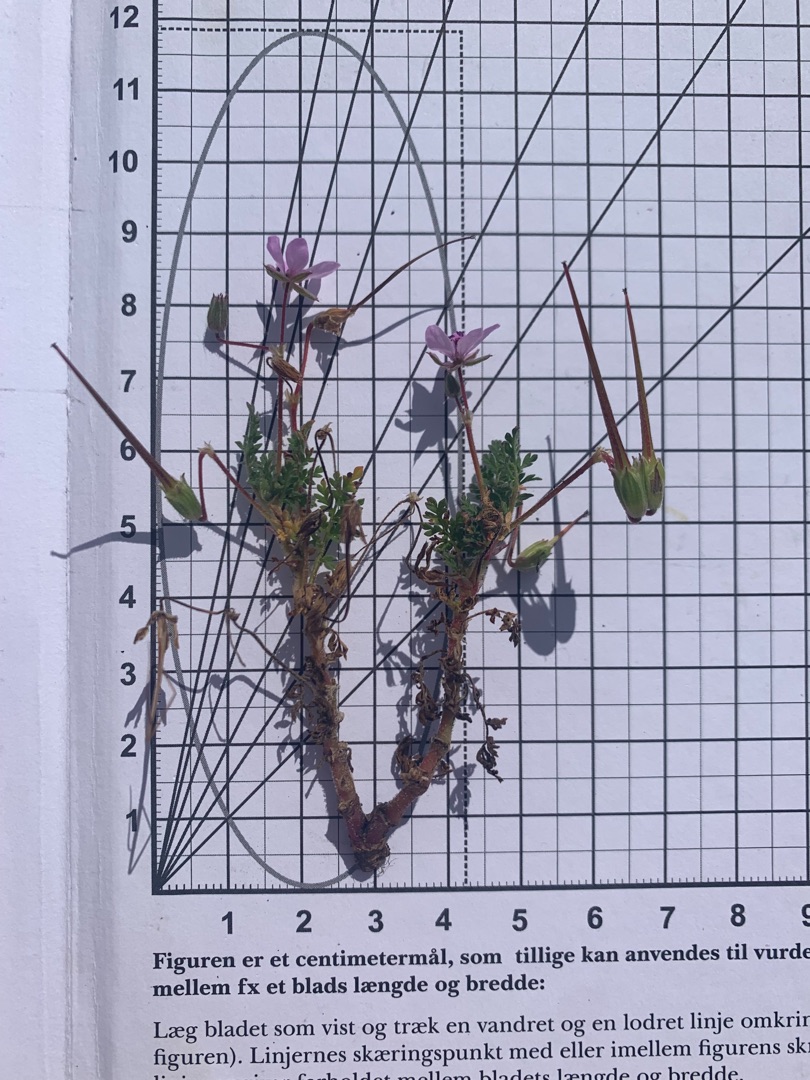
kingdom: Plantae
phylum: Tracheophyta
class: Magnoliopsida
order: Geraniales
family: Geraniaceae
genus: Erodium
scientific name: Erodium cicutarium
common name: Hejrenæb
